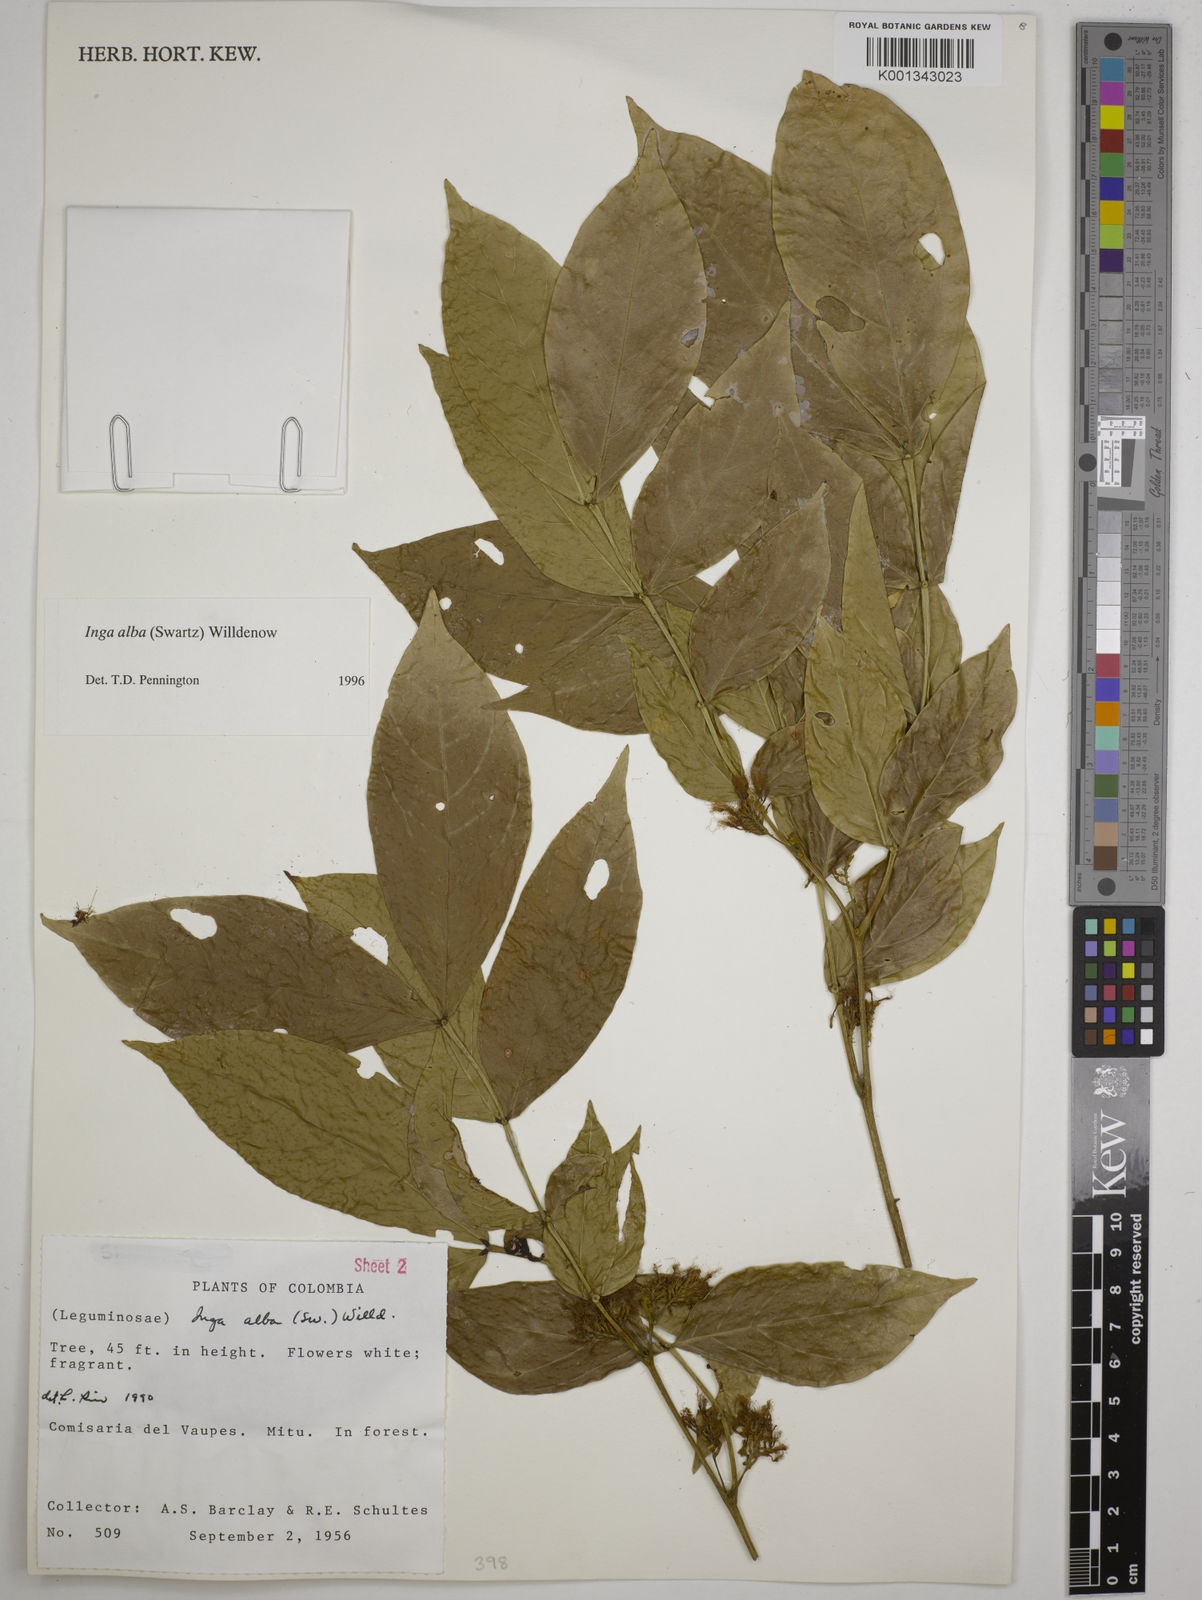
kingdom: Plantae
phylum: Tracheophyta
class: Magnoliopsida
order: Fabales
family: Fabaceae
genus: Inga
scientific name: Inga alba
